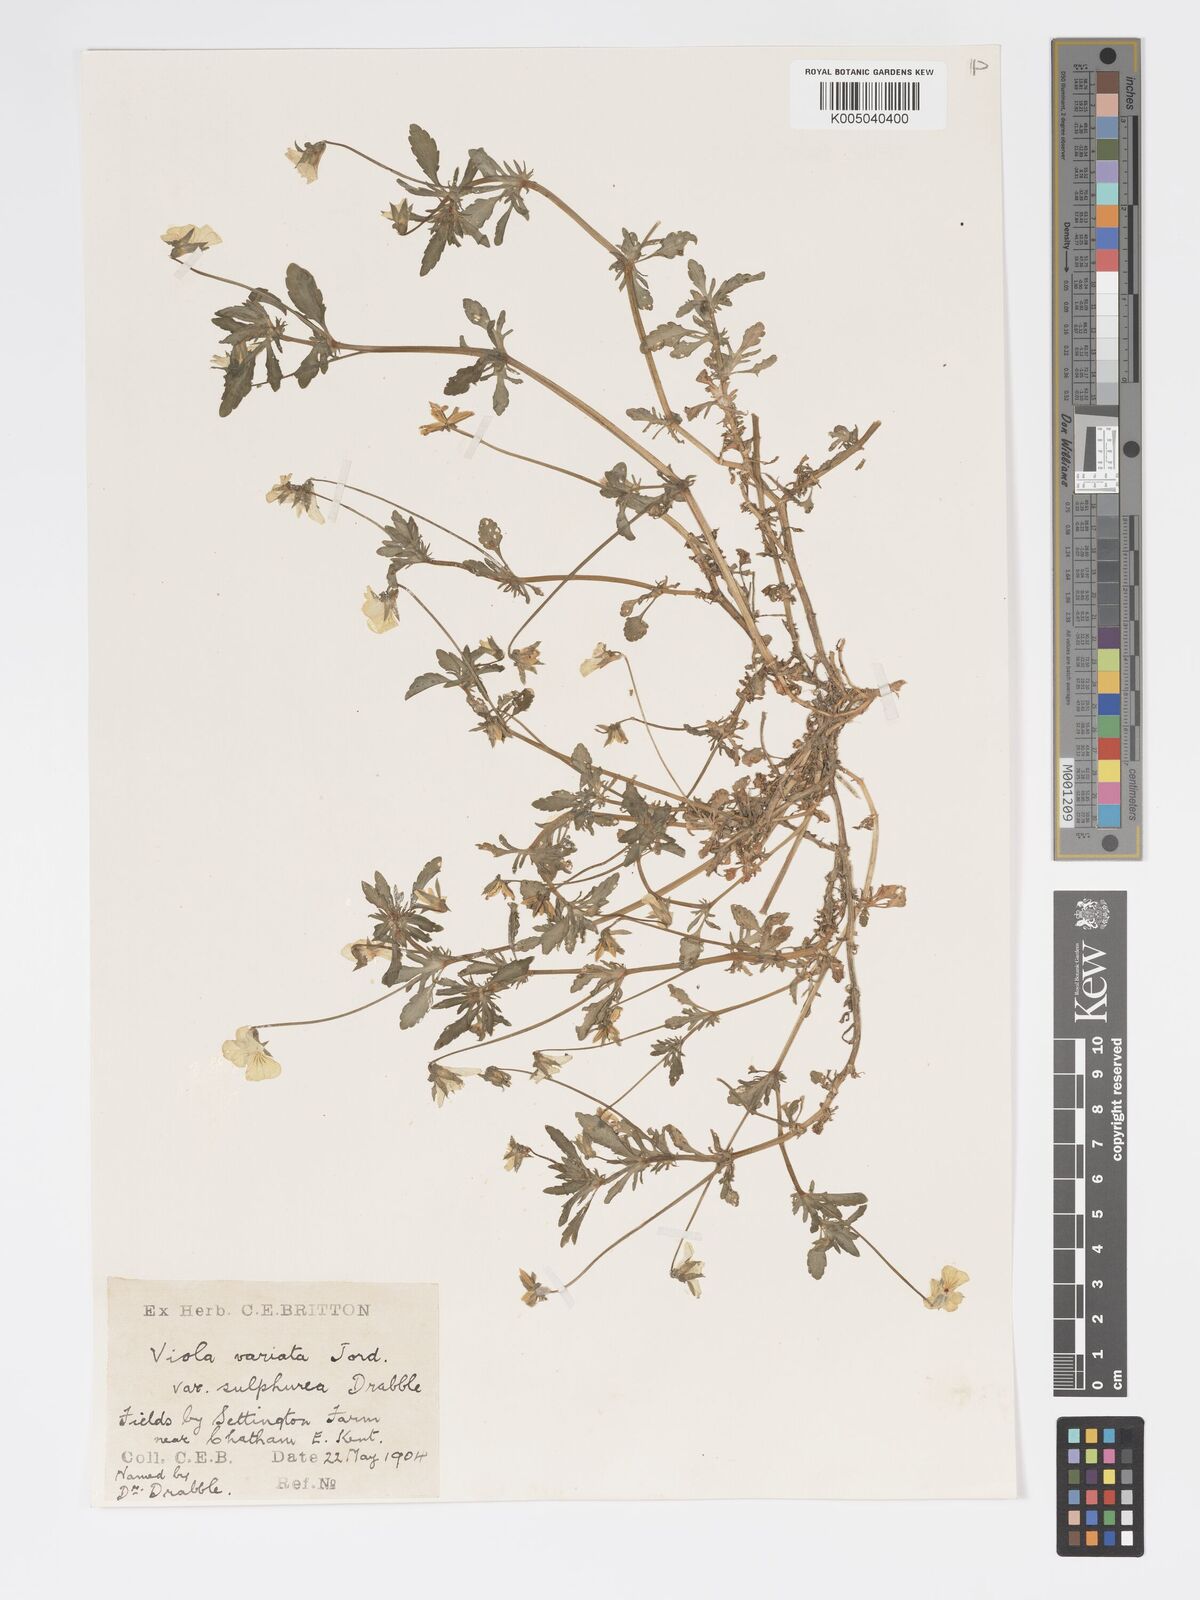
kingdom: Plantae
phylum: Tracheophyta
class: Magnoliopsida
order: Malpighiales
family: Violaceae
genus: Viola
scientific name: Viola arvensis
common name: Field pansy
